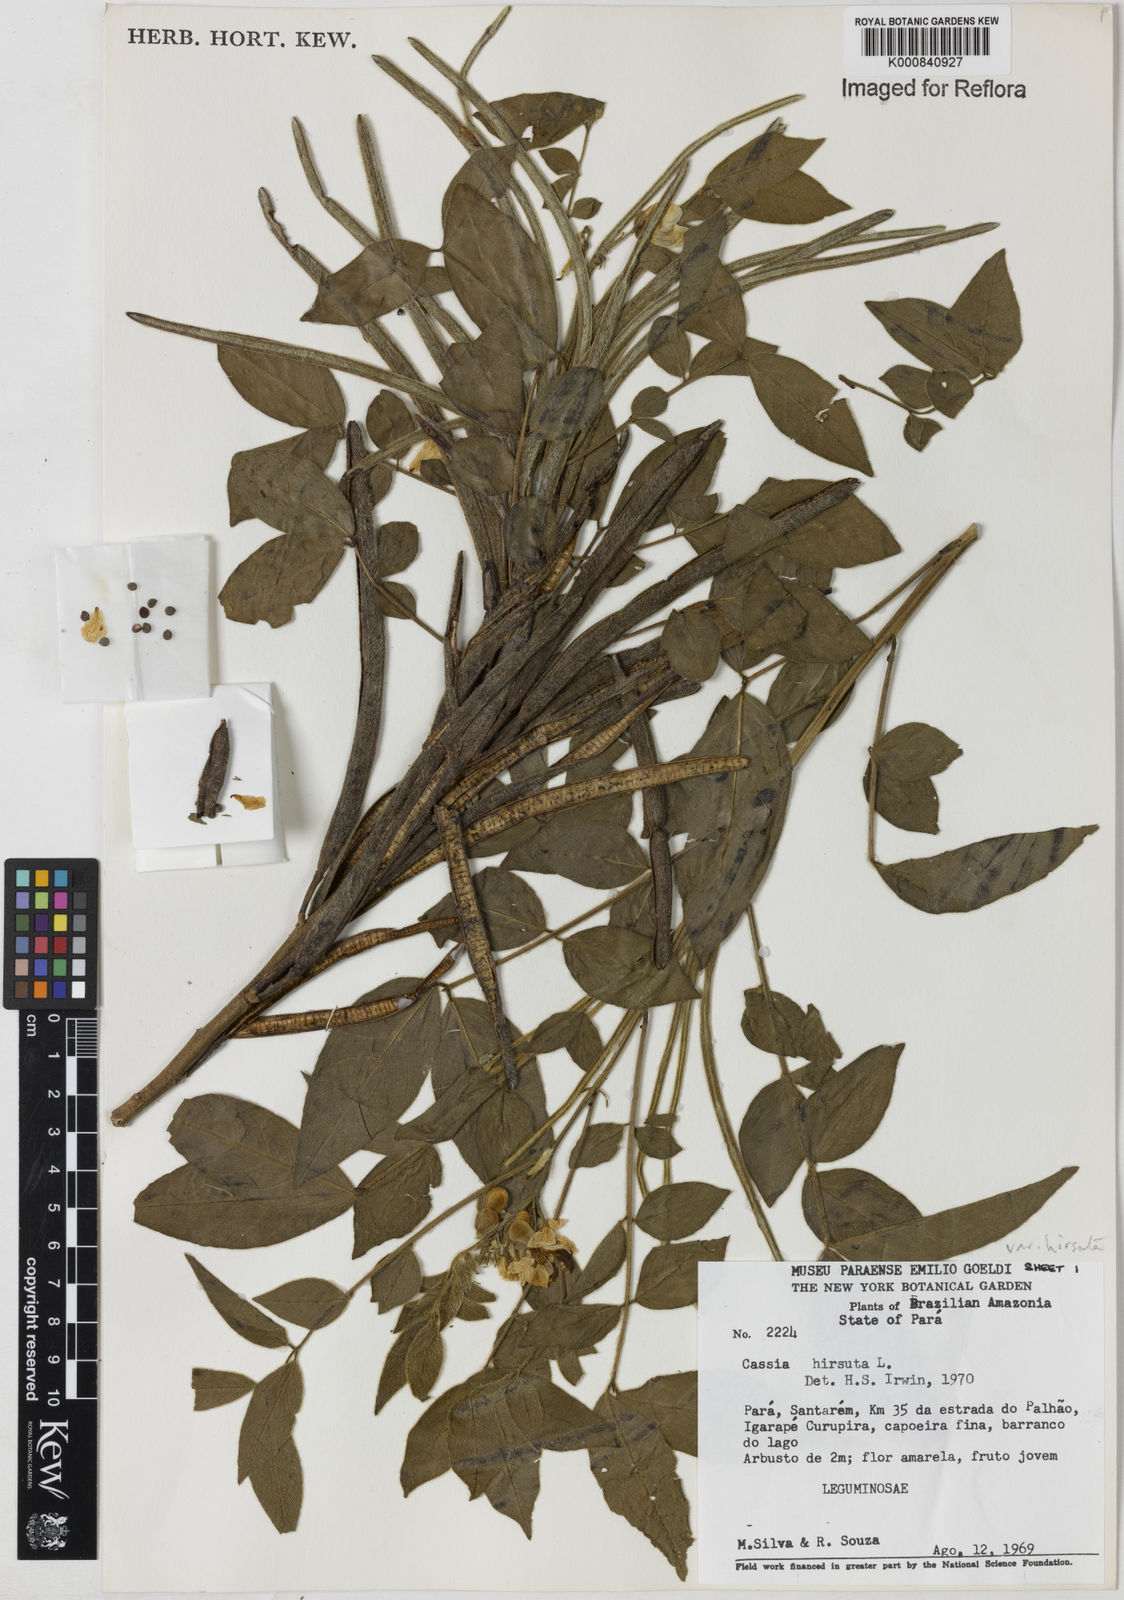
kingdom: Plantae
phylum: Tracheophyta
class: Magnoliopsida
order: Fabales
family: Fabaceae
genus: Senna
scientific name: Senna hirsuta
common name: Woolly senna
